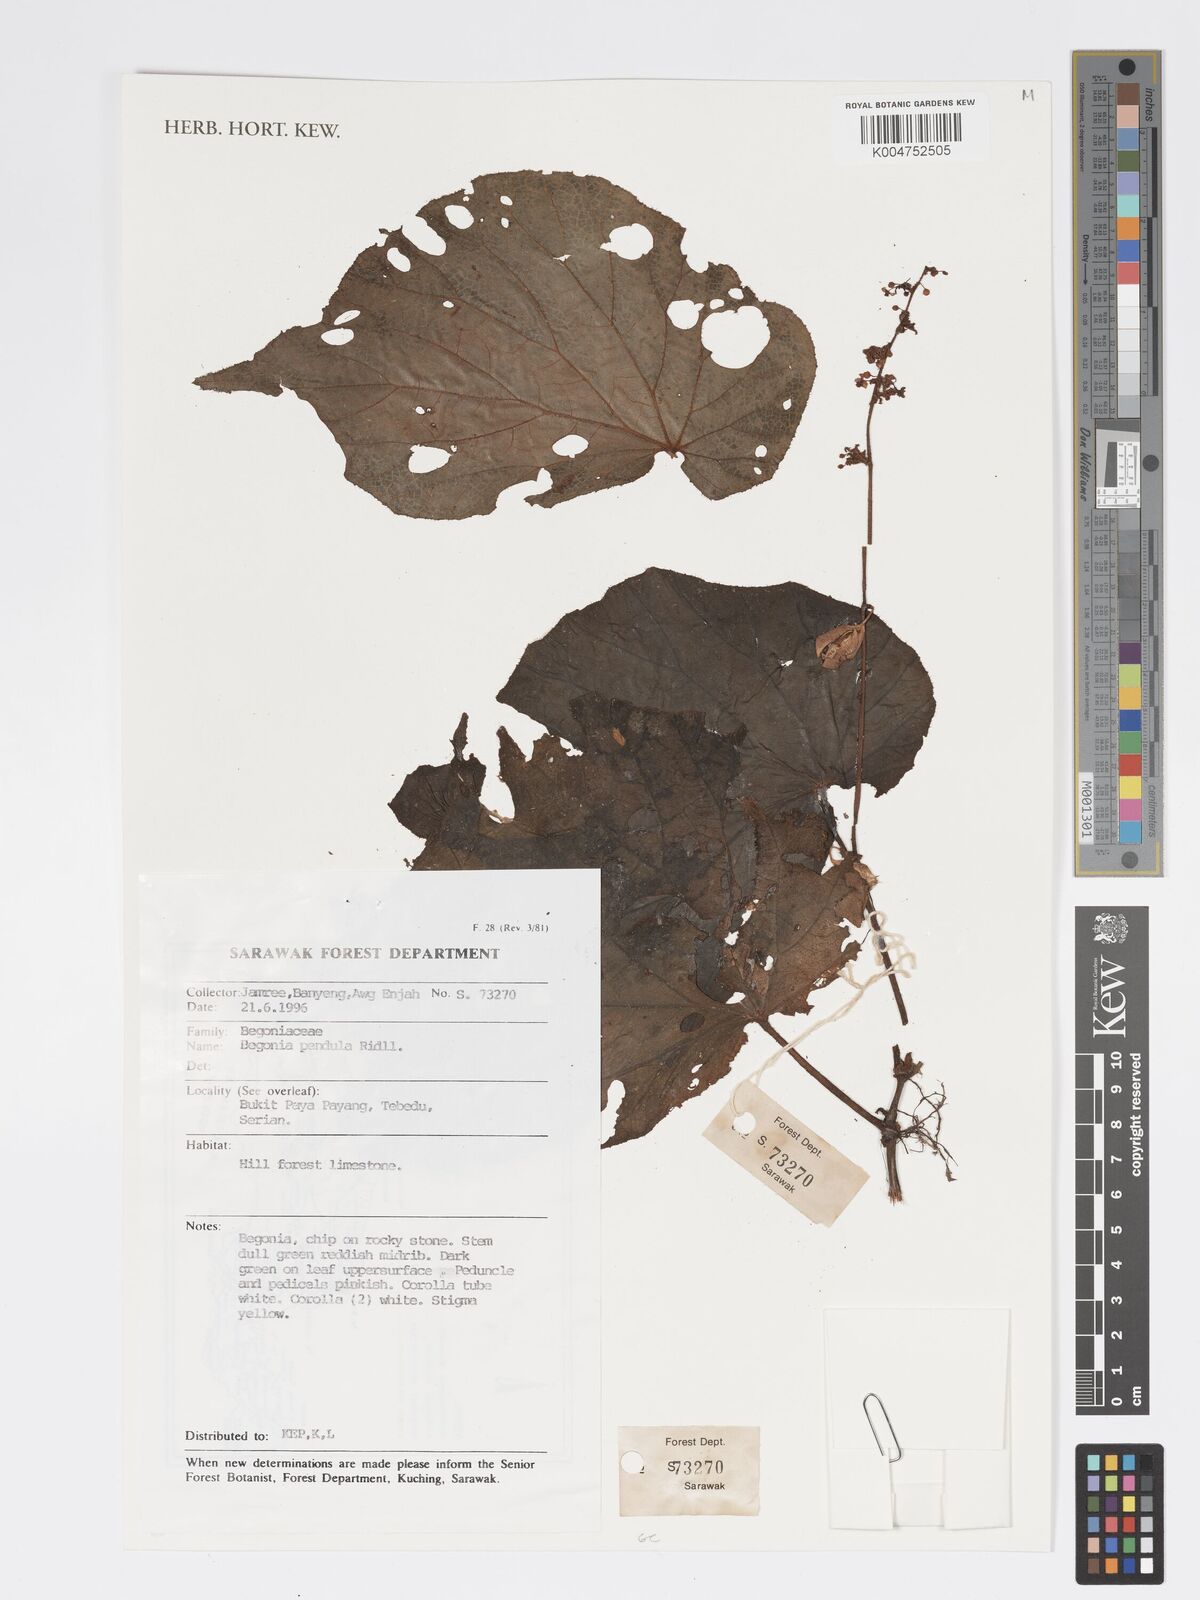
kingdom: Plantae
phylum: Tracheophyta
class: Magnoliopsida
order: Cucurbitales
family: Begoniaceae
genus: Begonia
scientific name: Begonia
